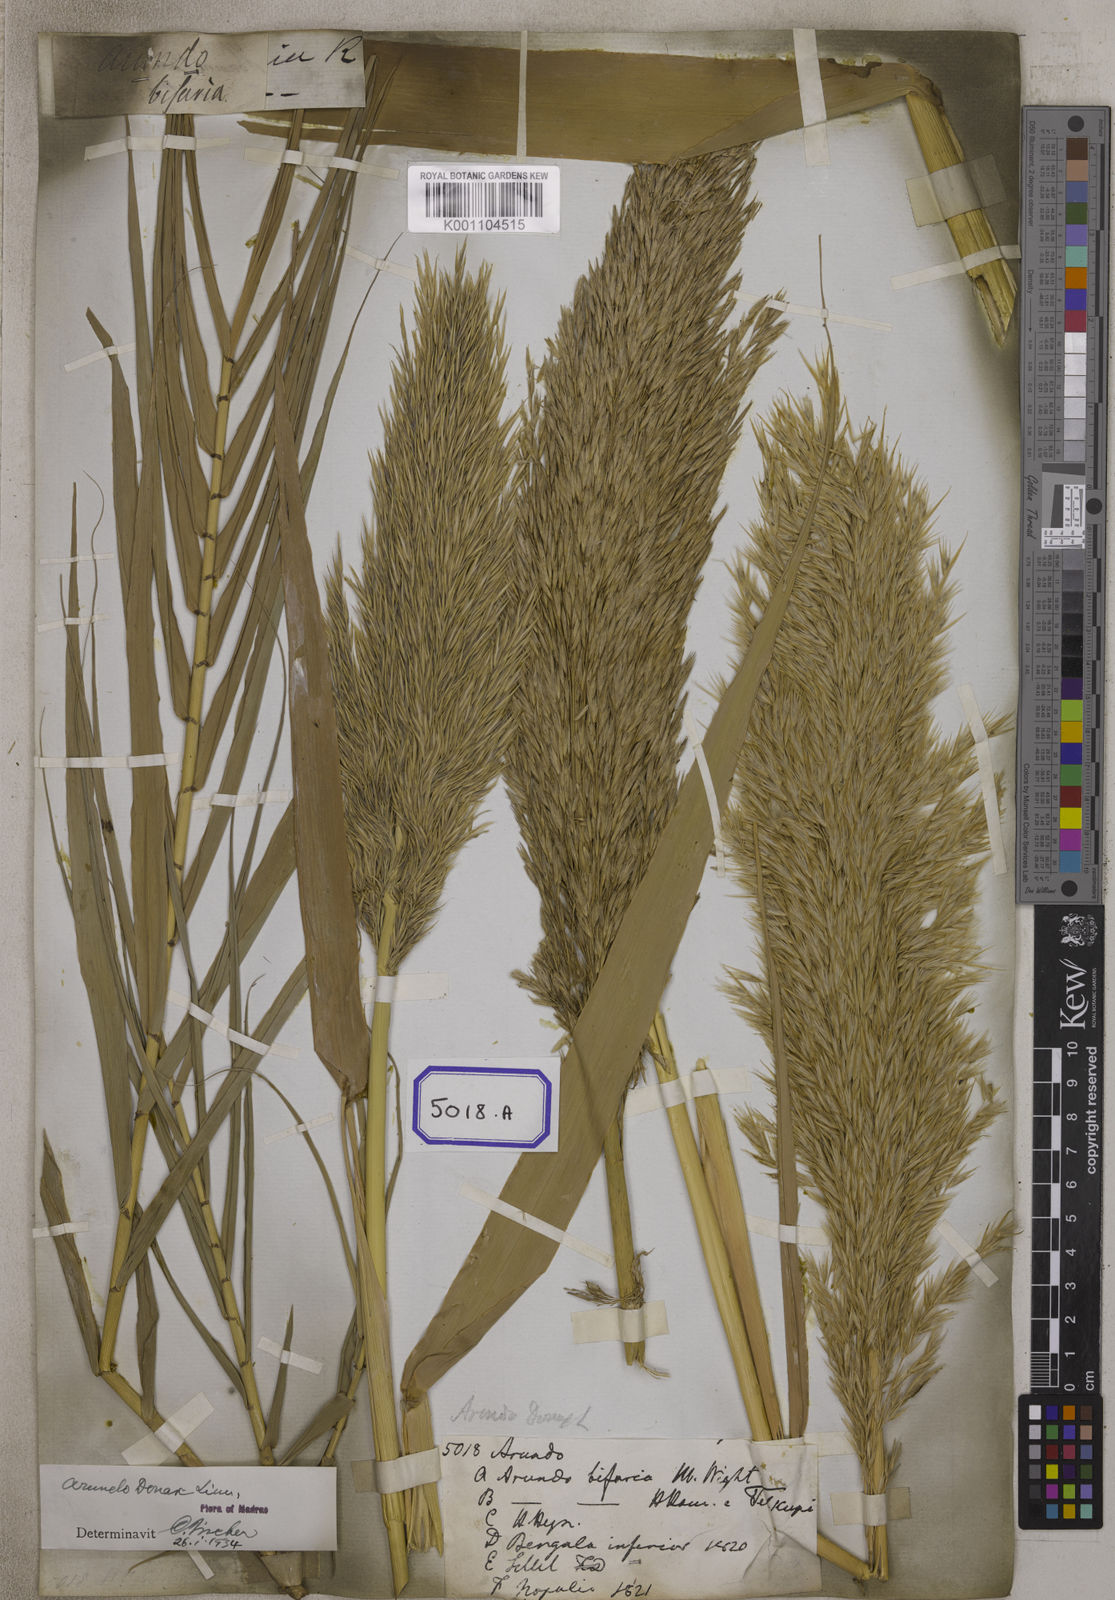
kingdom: Plantae
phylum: Tracheophyta
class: Liliopsida
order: Poales
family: Poaceae
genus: Arundo
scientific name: Arundo
